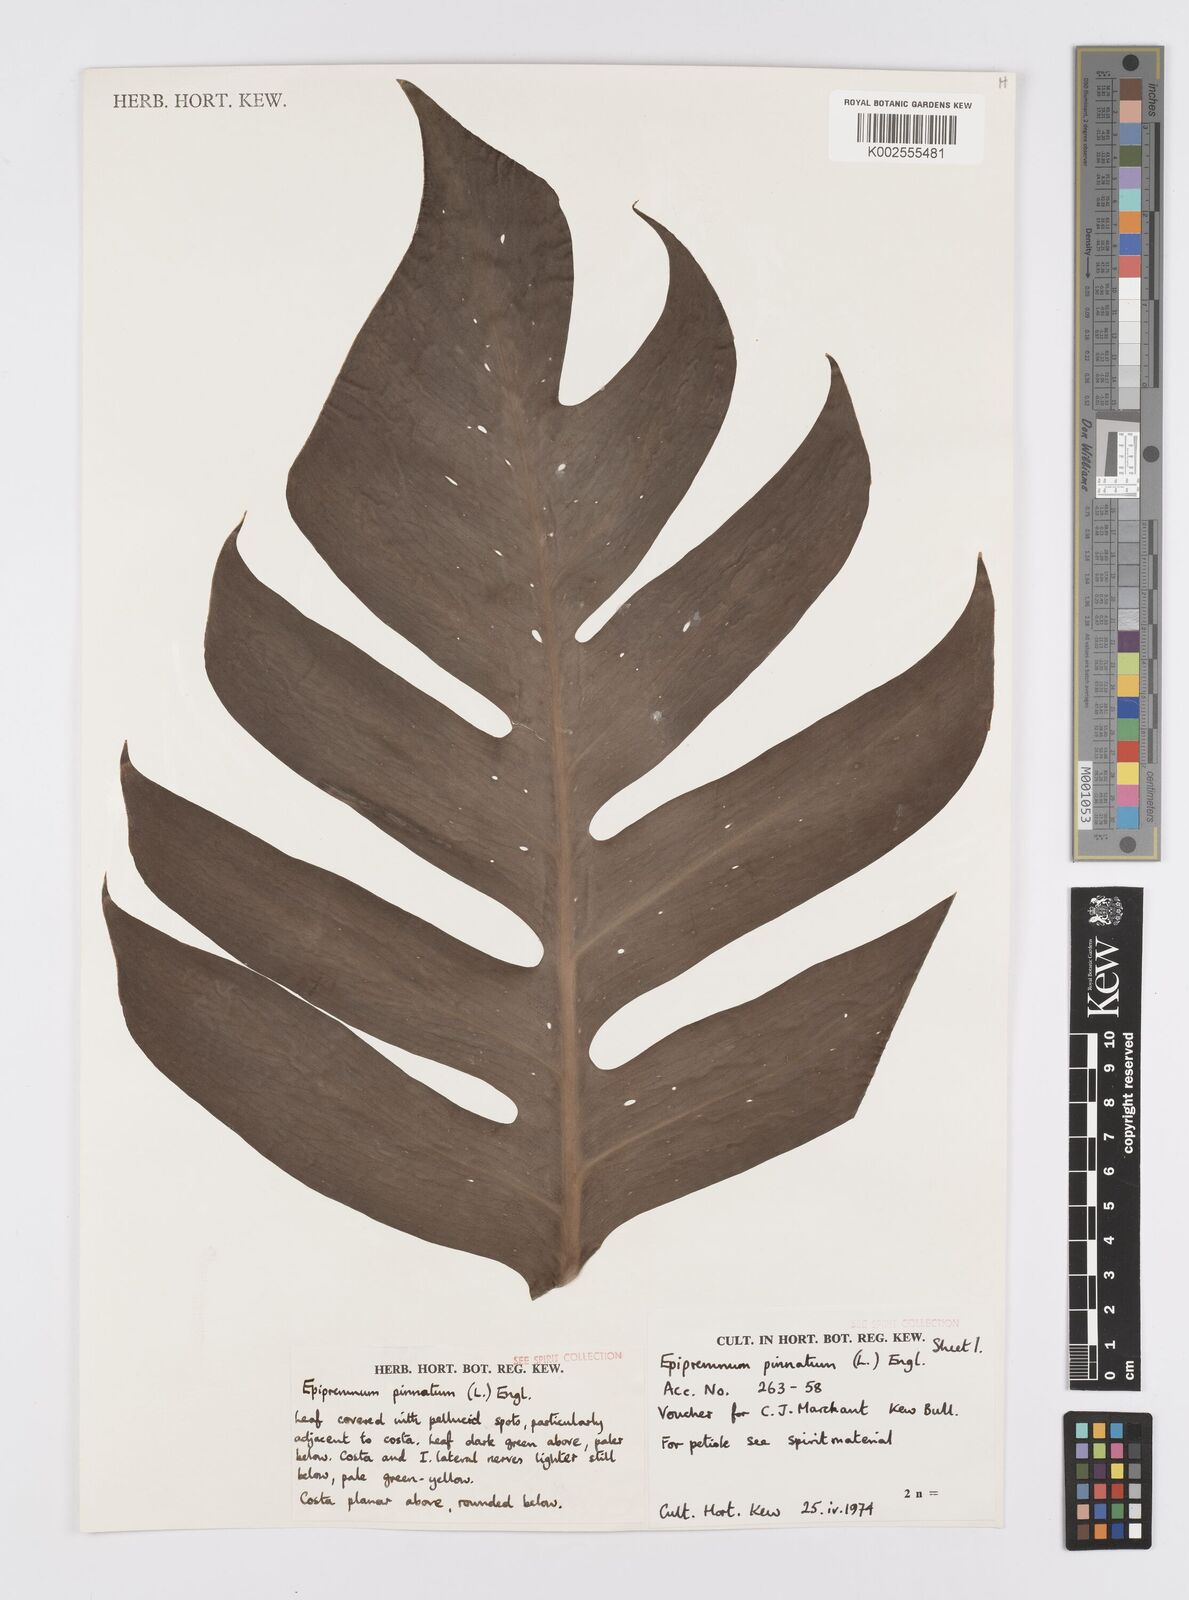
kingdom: Plantae
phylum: Tracheophyta
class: Liliopsida
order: Alismatales
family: Araceae
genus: Epipremnum
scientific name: Epipremnum pinnatum
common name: Centipede tongavine
